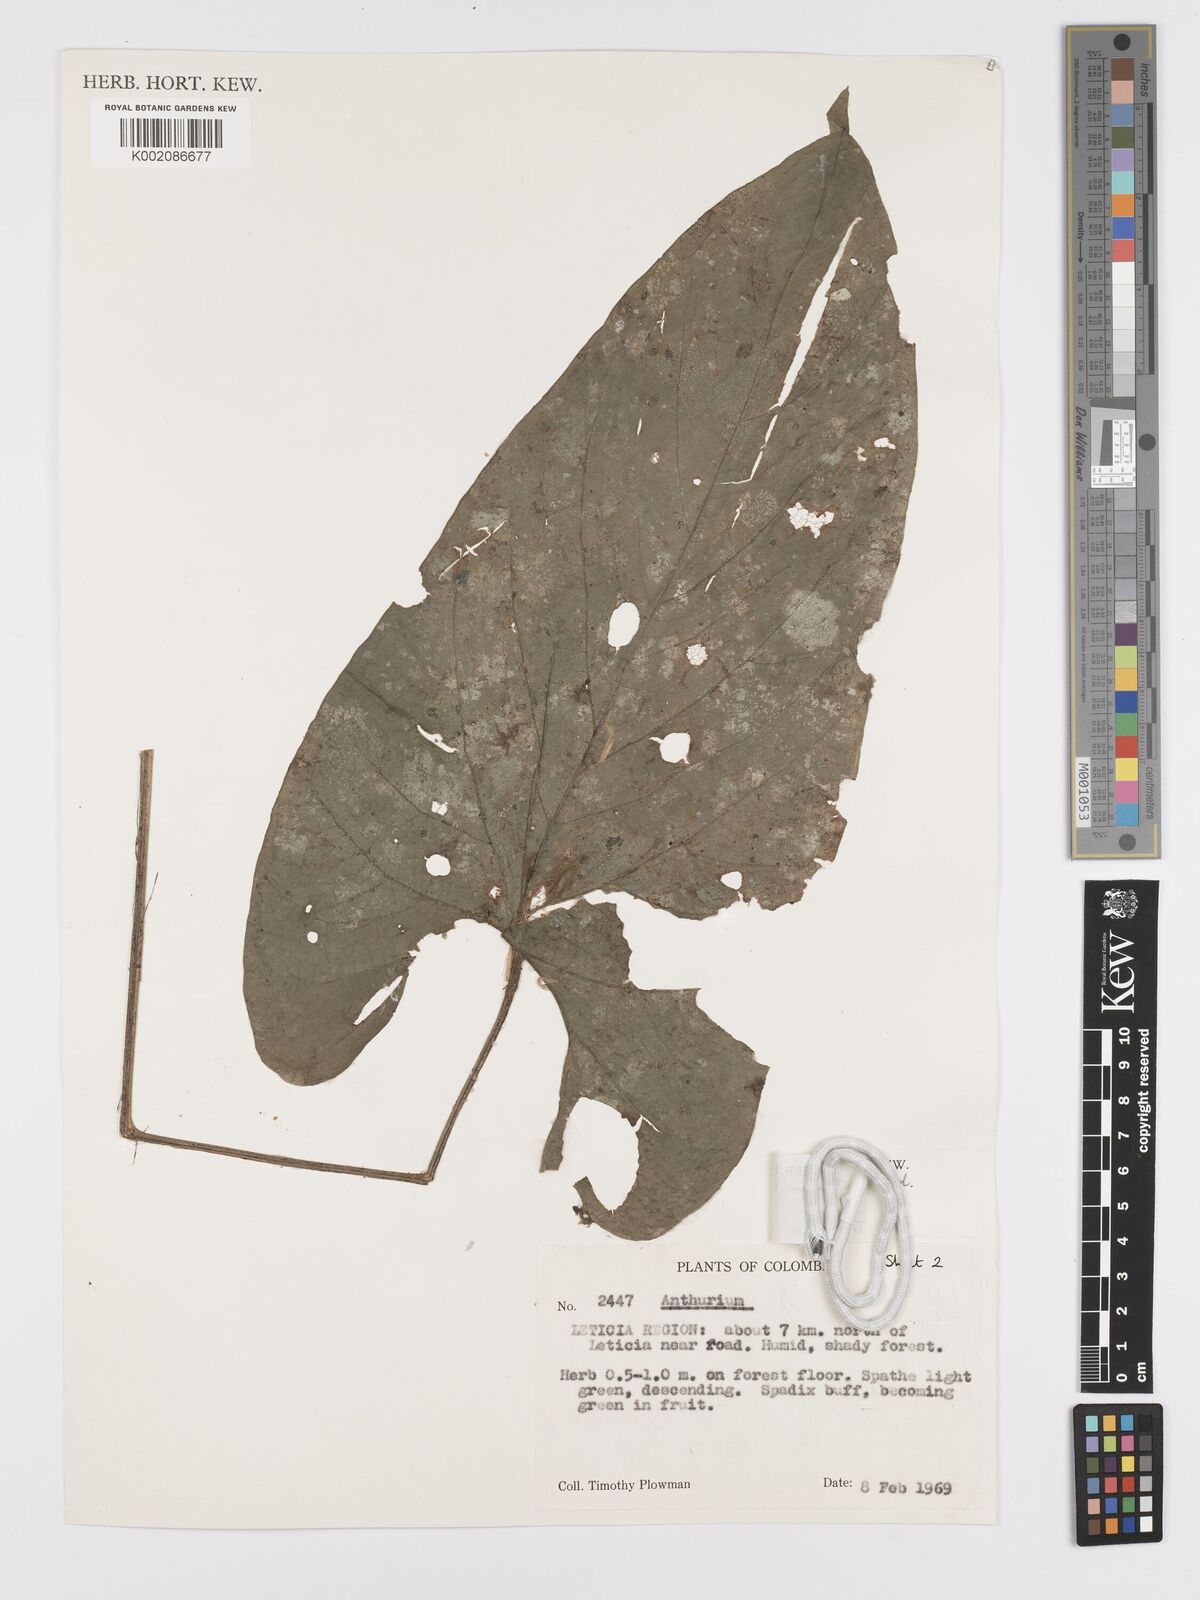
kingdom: Plantae
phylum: Tracheophyta
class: Liliopsida
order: Alismatales
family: Araceae
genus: Anthurium
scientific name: Anthurium multinervium
